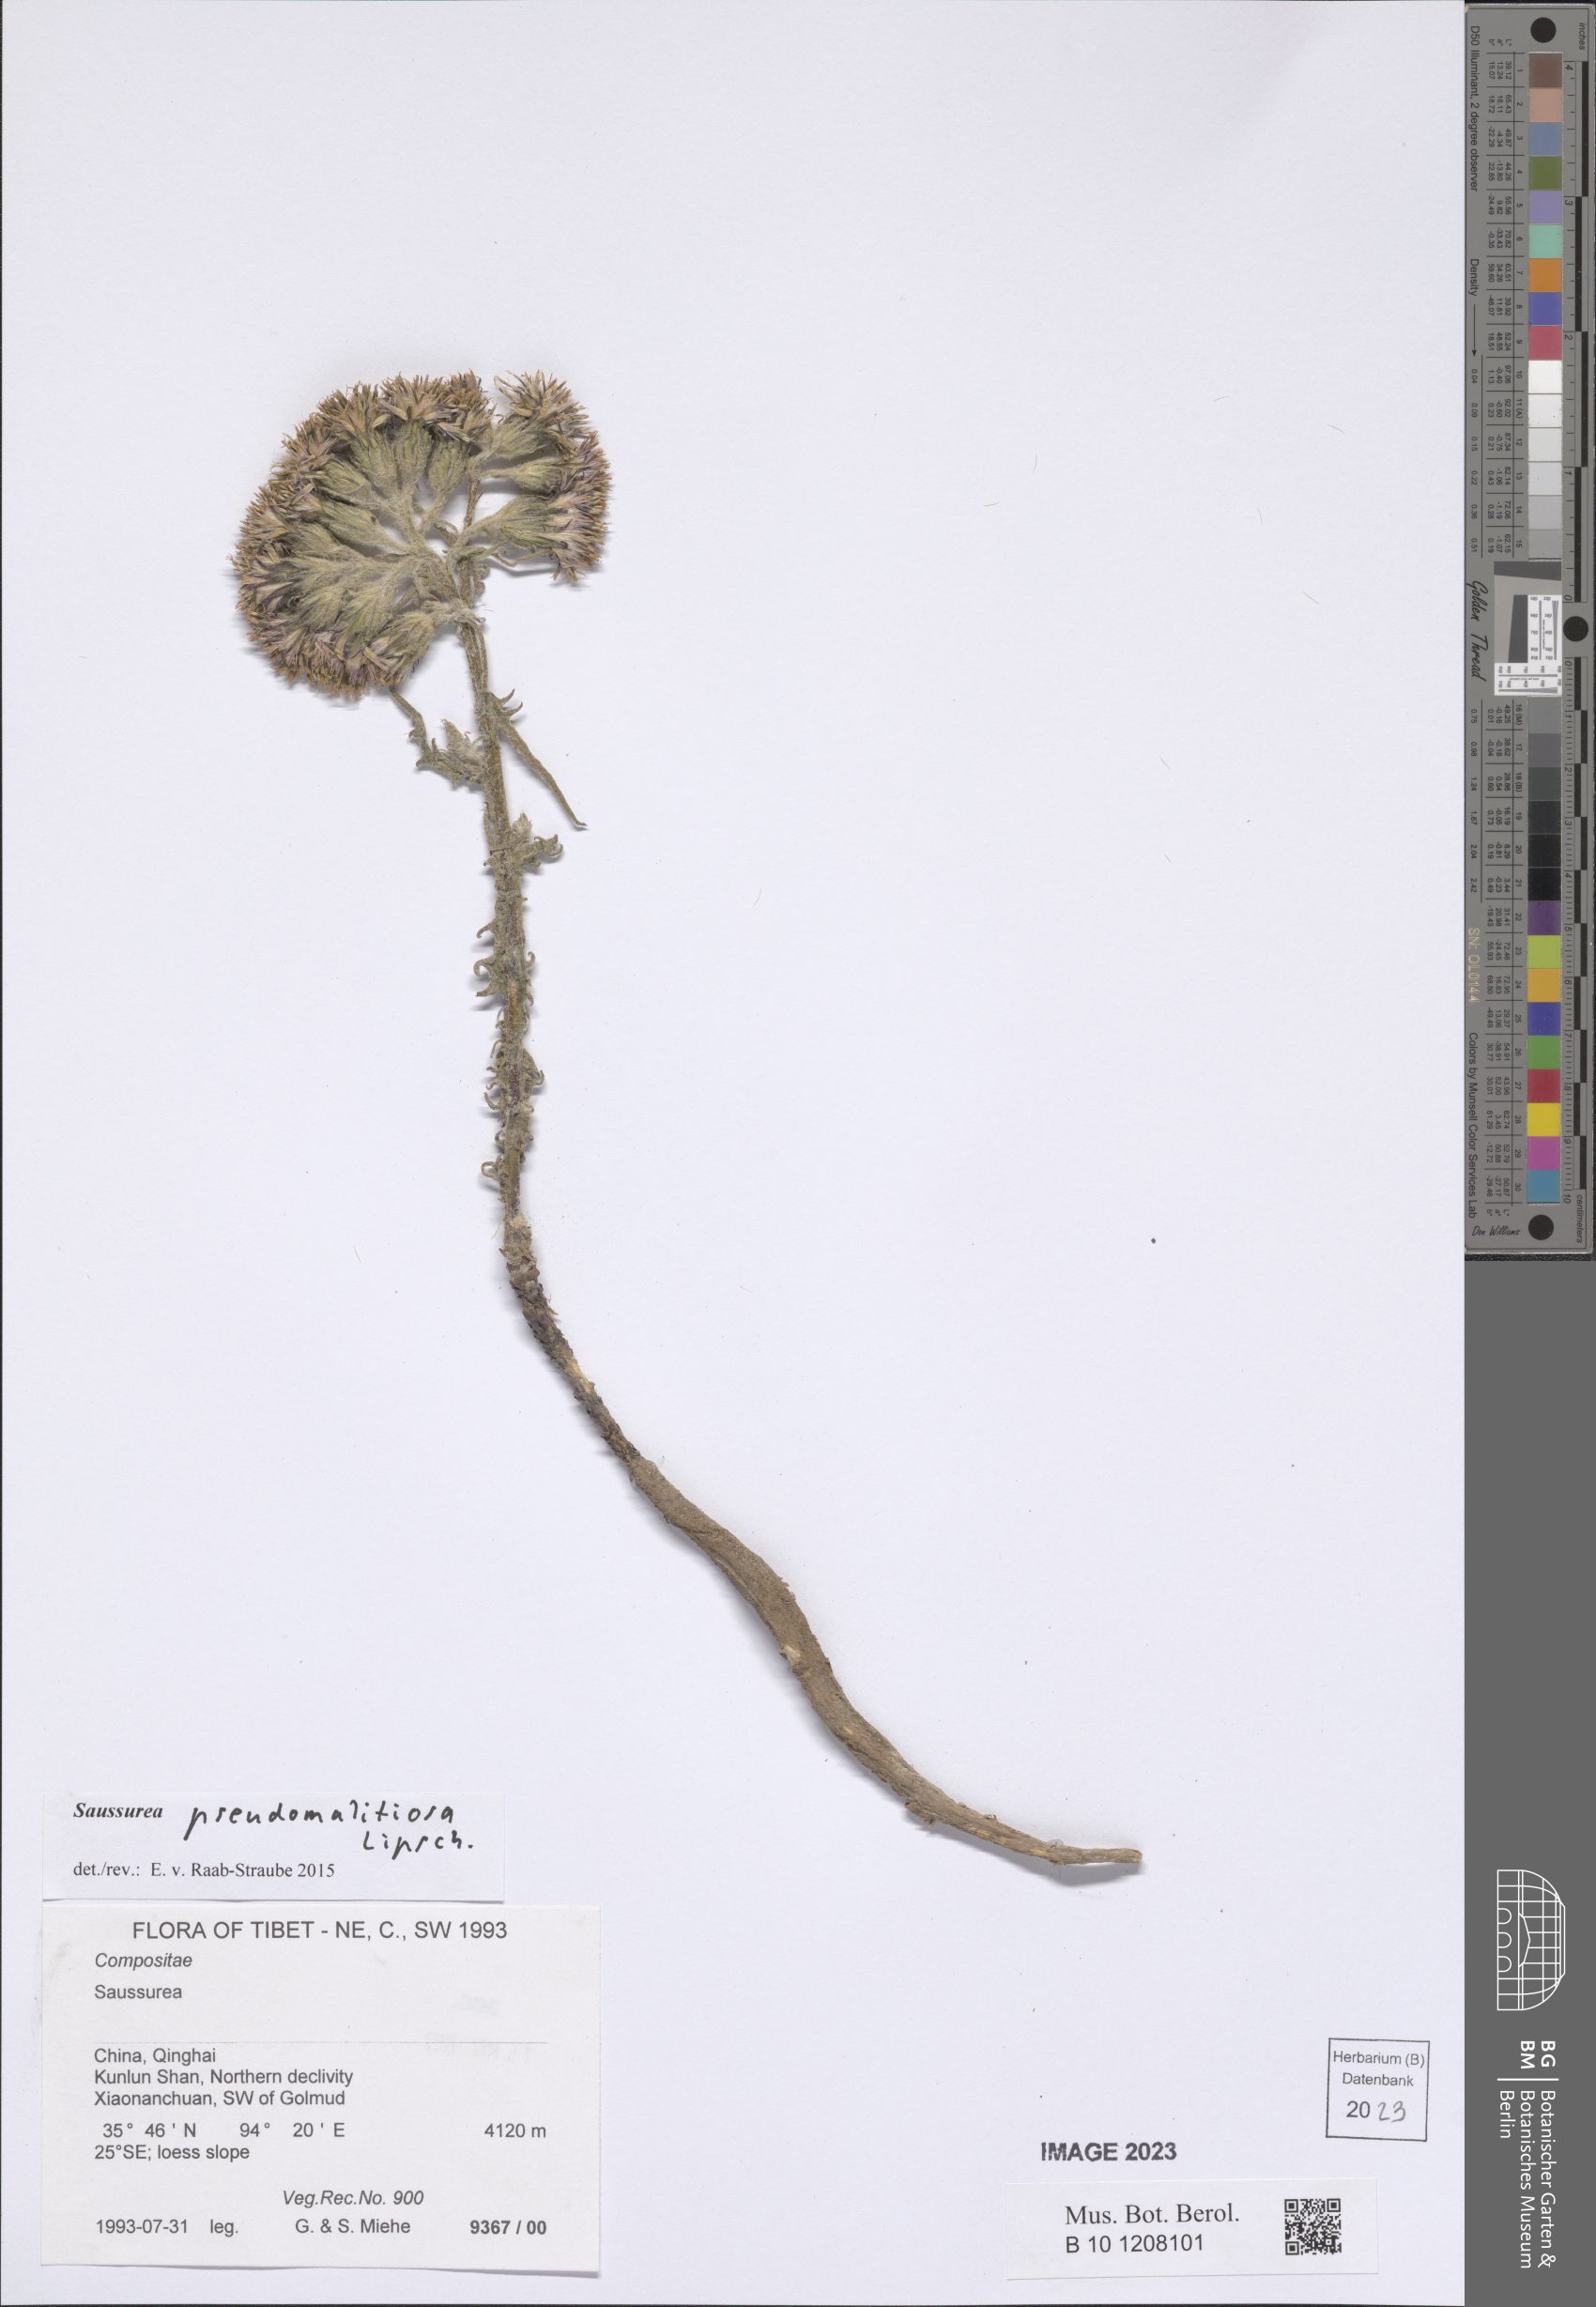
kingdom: Plantae
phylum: Tracheophyta
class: Magnoliopsida
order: Asterales
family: Asteraceae
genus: Saussurea
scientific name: Saussurea pseudomalitiosa
